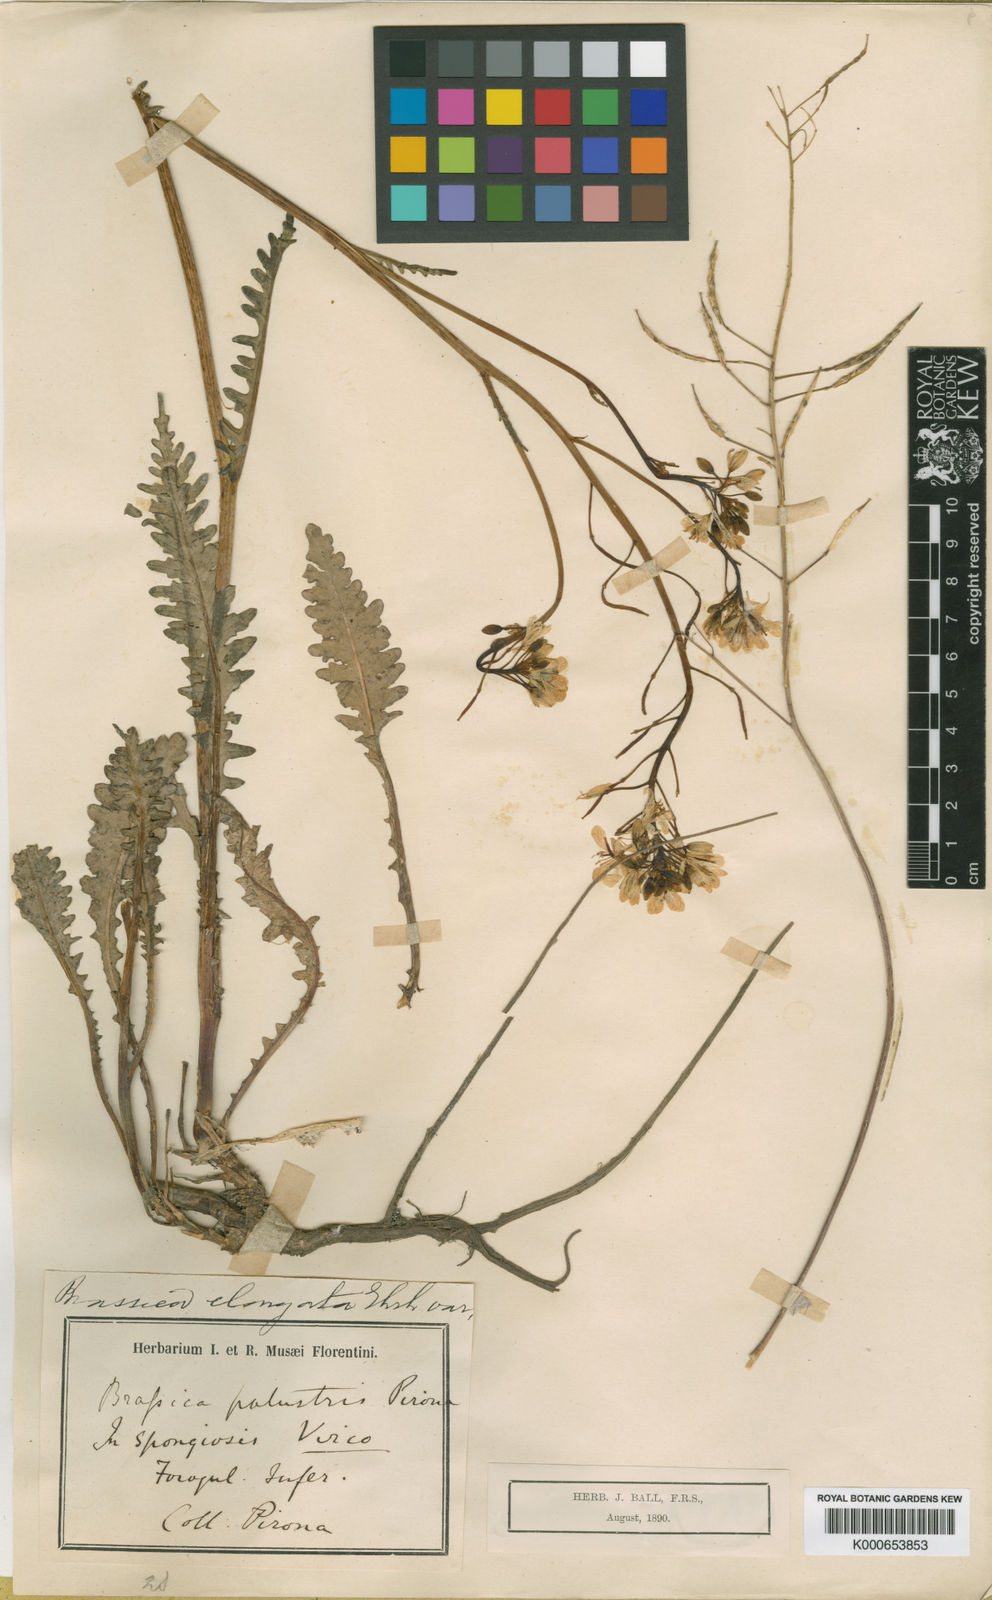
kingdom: Plantae
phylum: Tracheophyta
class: Magnoliopsida
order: Brassicales
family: Brassicaceae
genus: Erucastrum
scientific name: Erucastrum palustre
